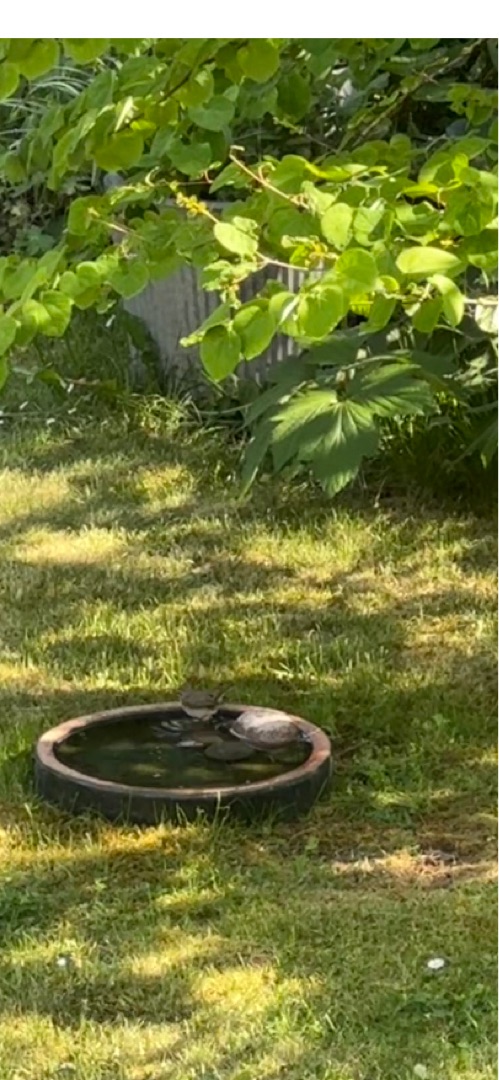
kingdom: Animalia
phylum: Chordata
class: Aves
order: Passeriformes
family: Sylviidae
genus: Sylvia
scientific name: Sylvia curruca
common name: Gærdesanger
